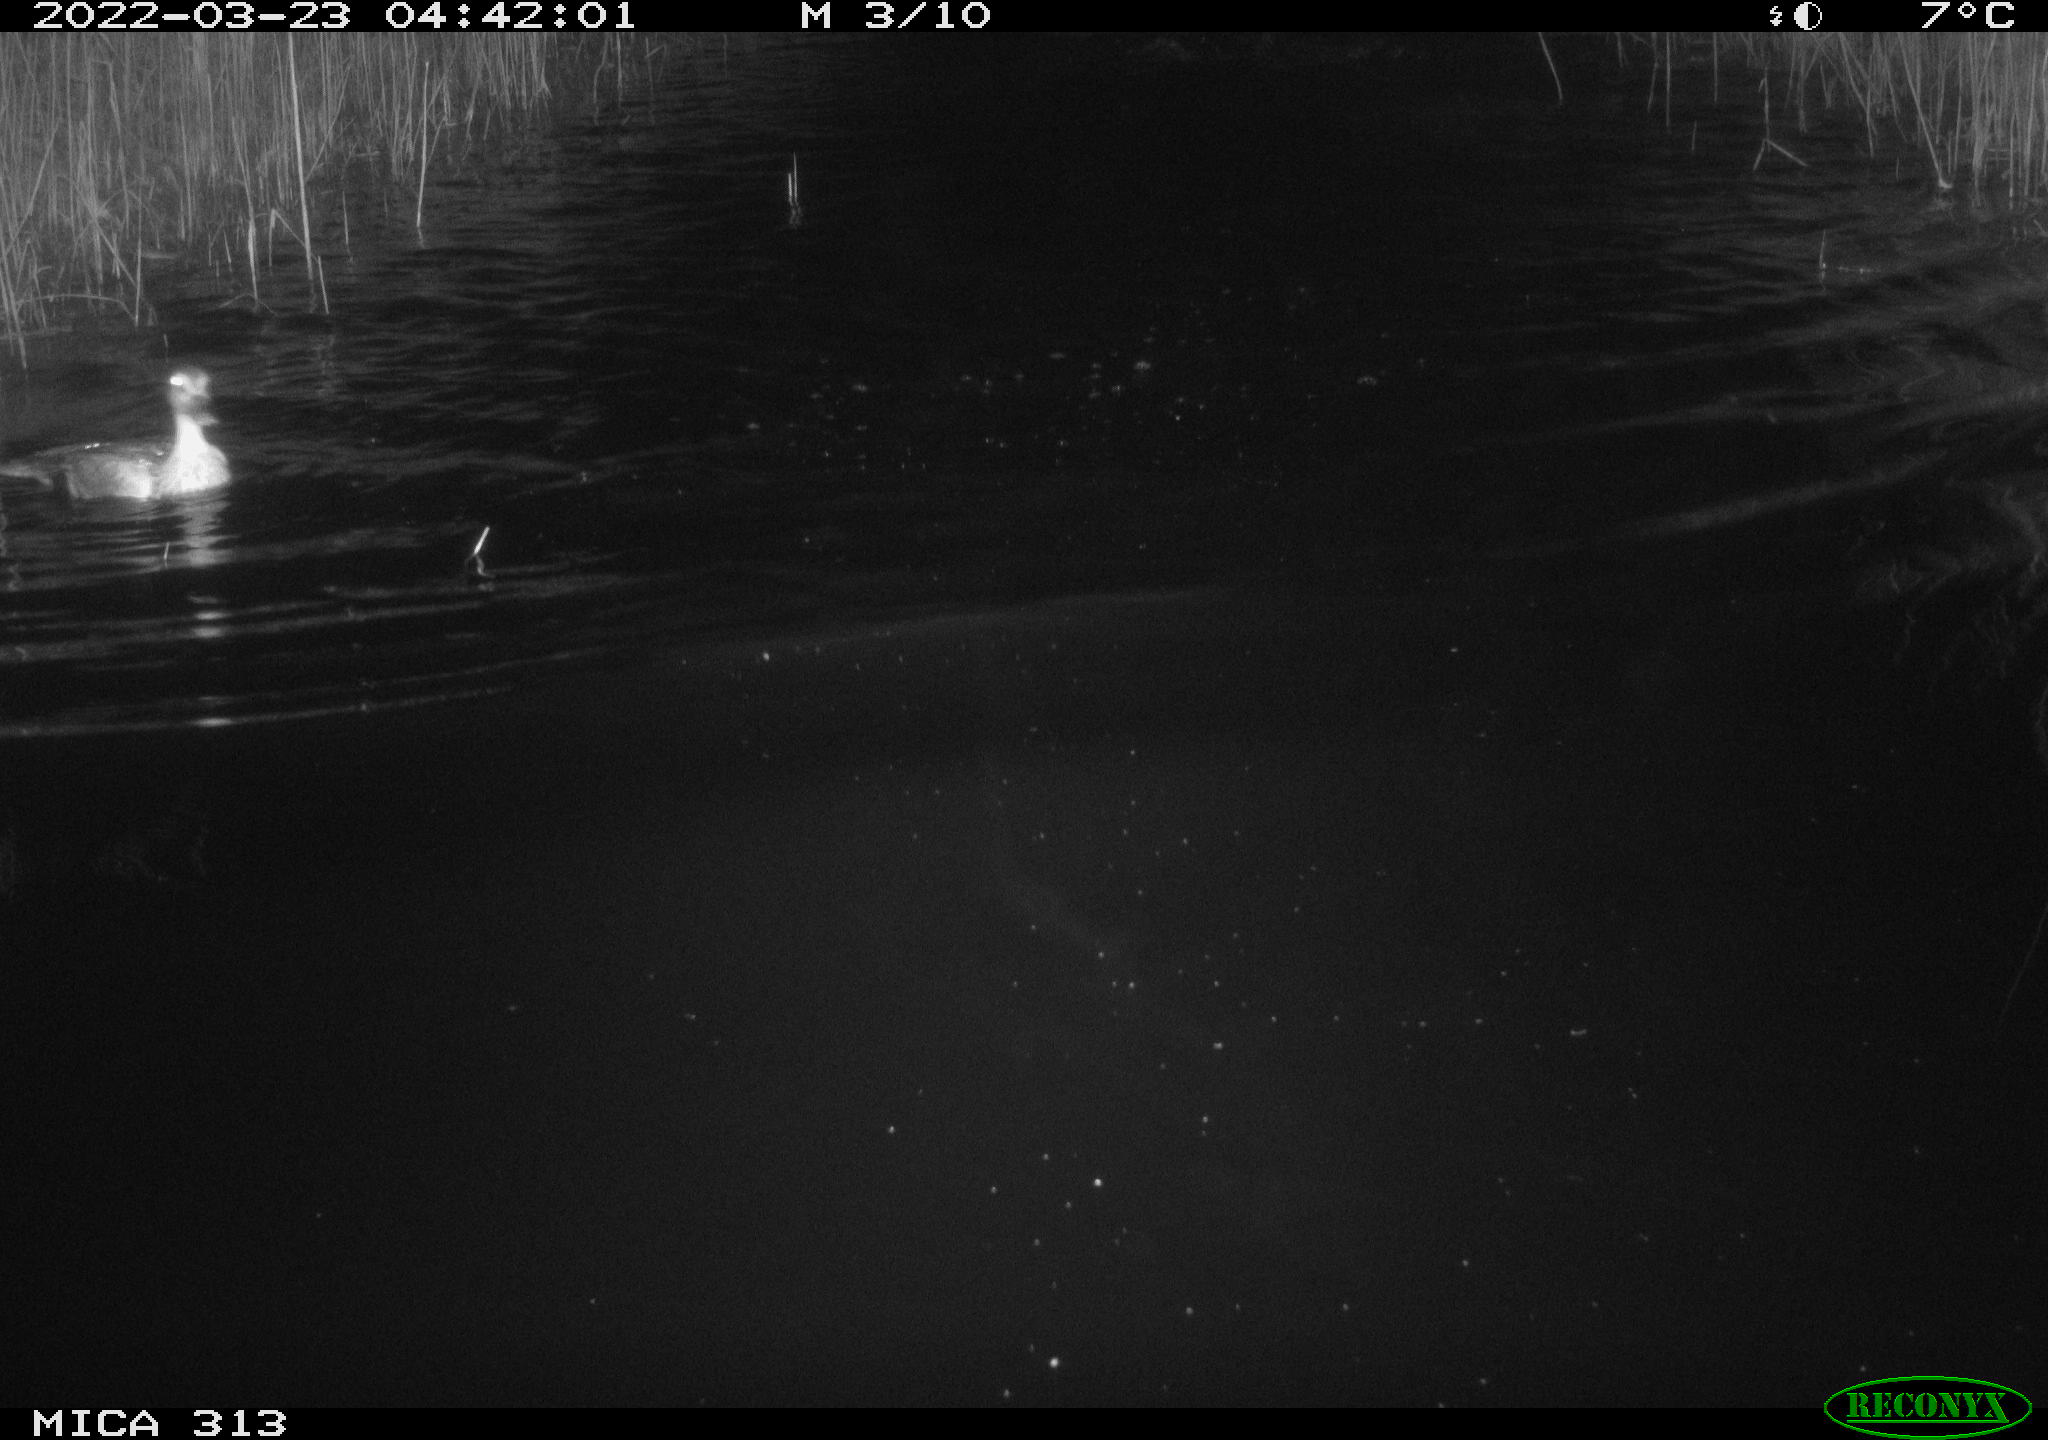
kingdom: Animalia
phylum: Chordata
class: Aves
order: Anseriformes
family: Anatidae
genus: Anas
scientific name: Anas platyrhynchos
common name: Mallard
